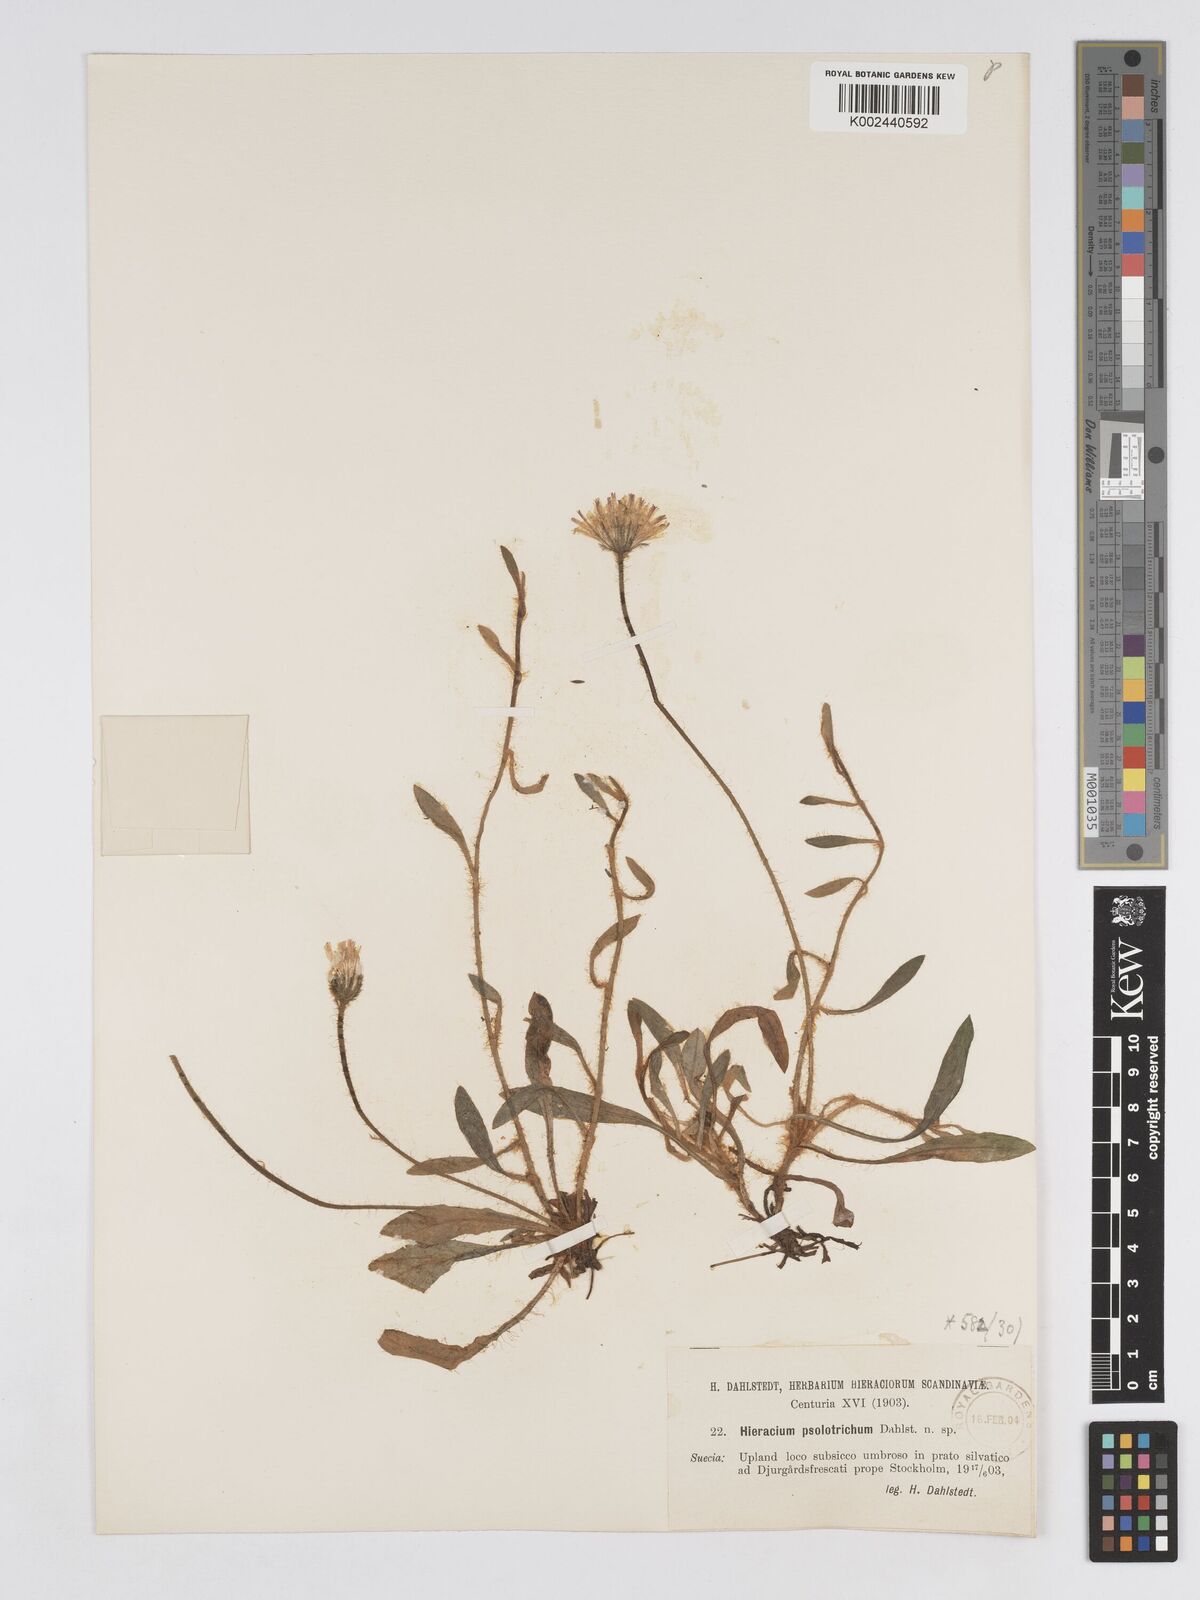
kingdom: Plantae
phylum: Tracheophyta
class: Magnoliopsida
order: Asterales
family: Asteraceae
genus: Pilosella
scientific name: Pilosella longisquama
